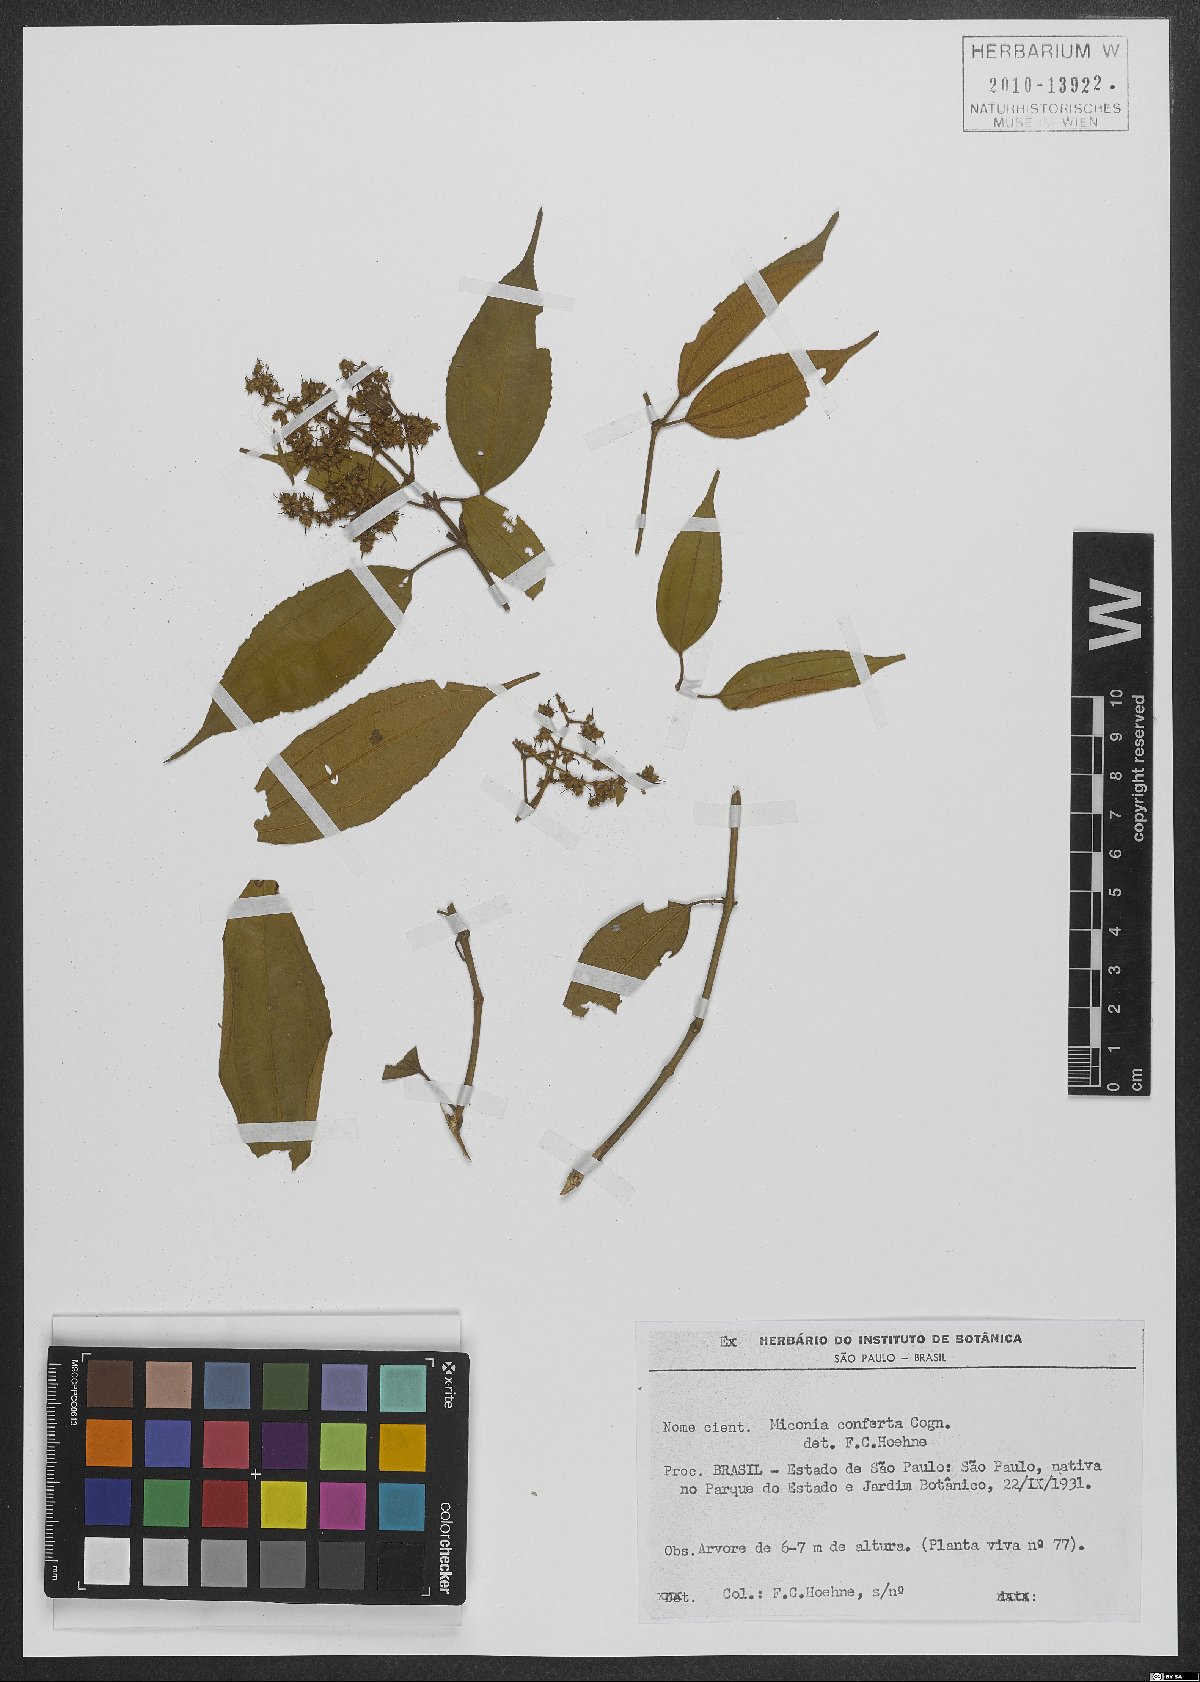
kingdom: Plantae
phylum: Tracheophyta
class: Magnoliopsida
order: Myrtales
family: Melastomataceae
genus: Miconia
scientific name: Miconia inconspicua
